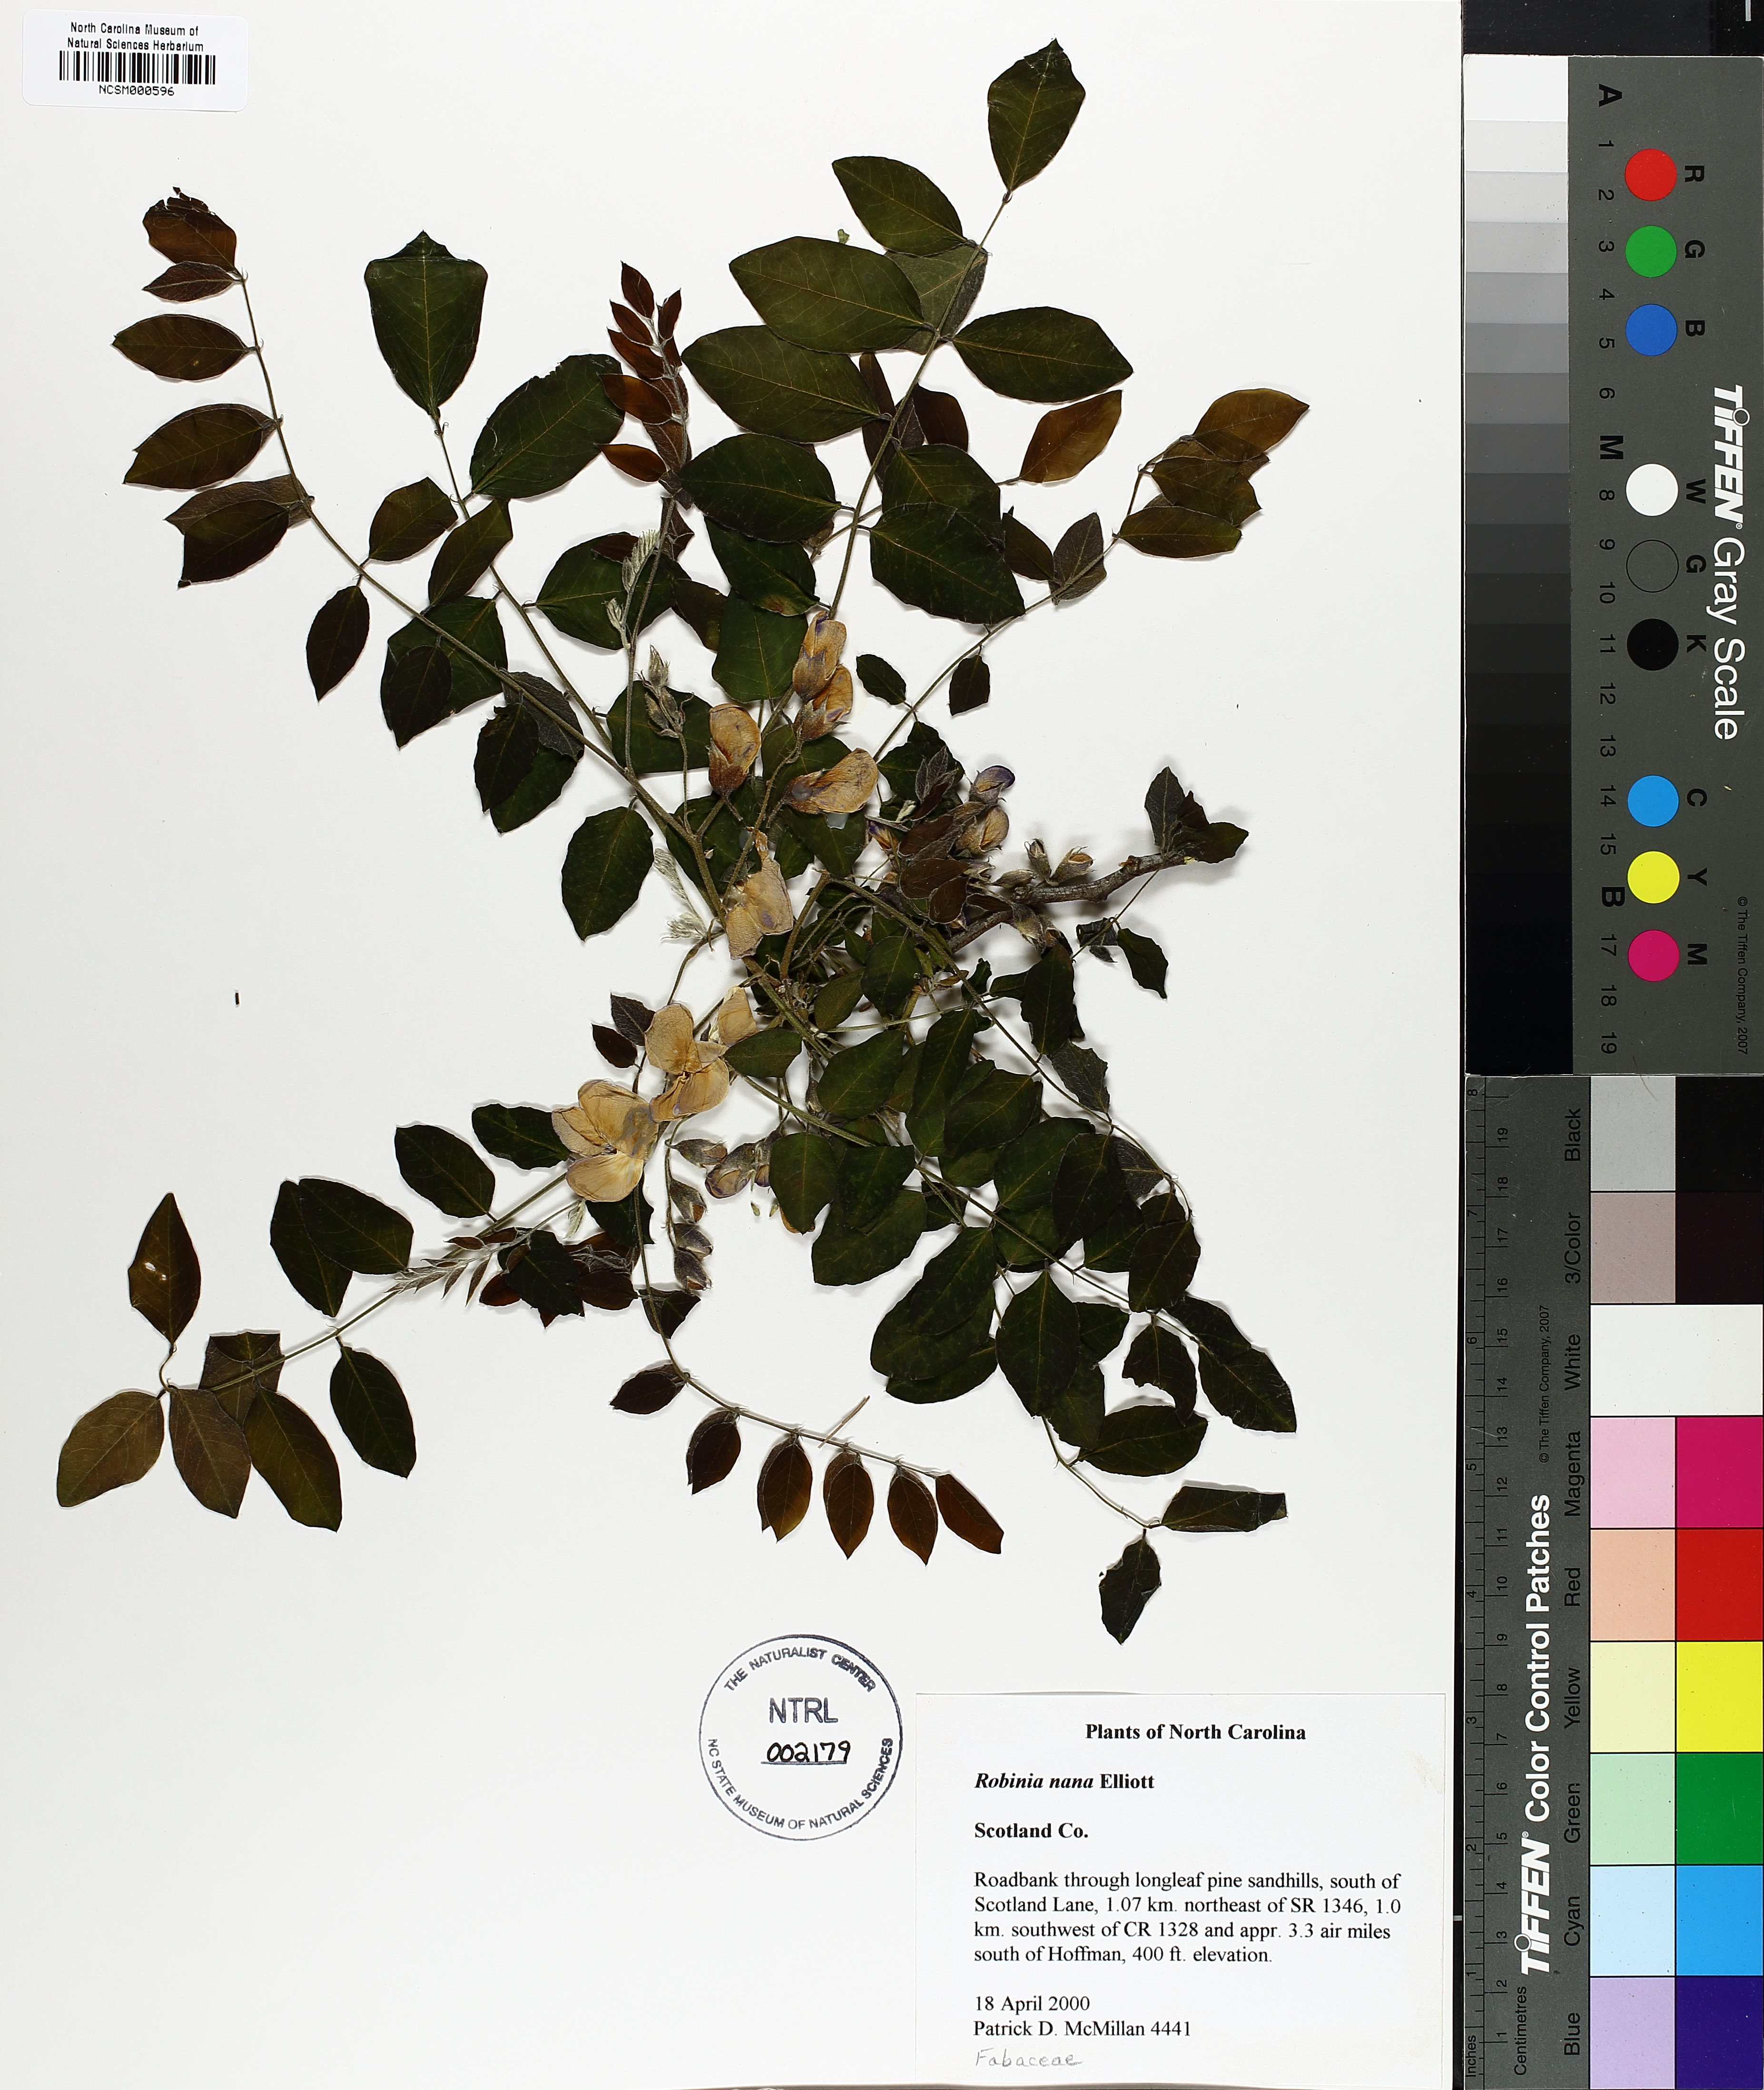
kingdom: Plantae
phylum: Tracheophyta
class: Magnoliopsida
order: Fabales
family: Fabaceae
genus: Robinia
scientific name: Robinia hispida
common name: Bristly locust
